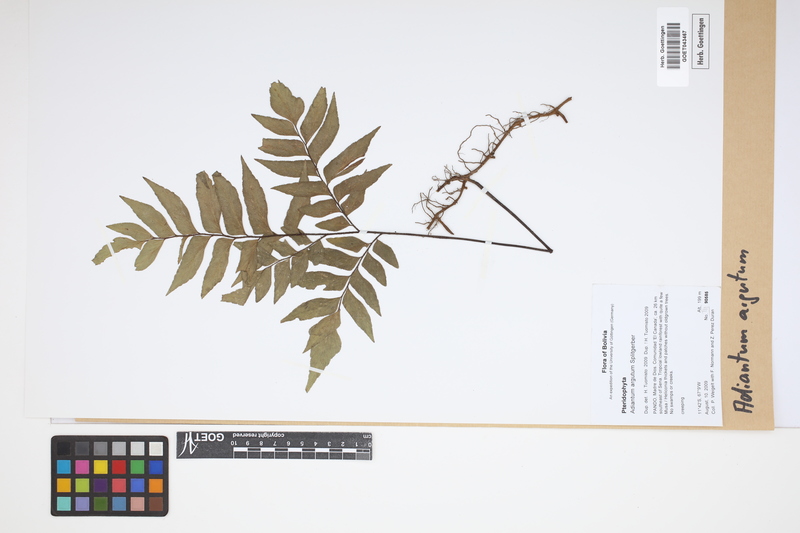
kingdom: Plantae
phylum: Tracheophyta
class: Polypodiopsida
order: Polypodiales
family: Pteridaceae
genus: Adiantum
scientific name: Adiantum argutum
